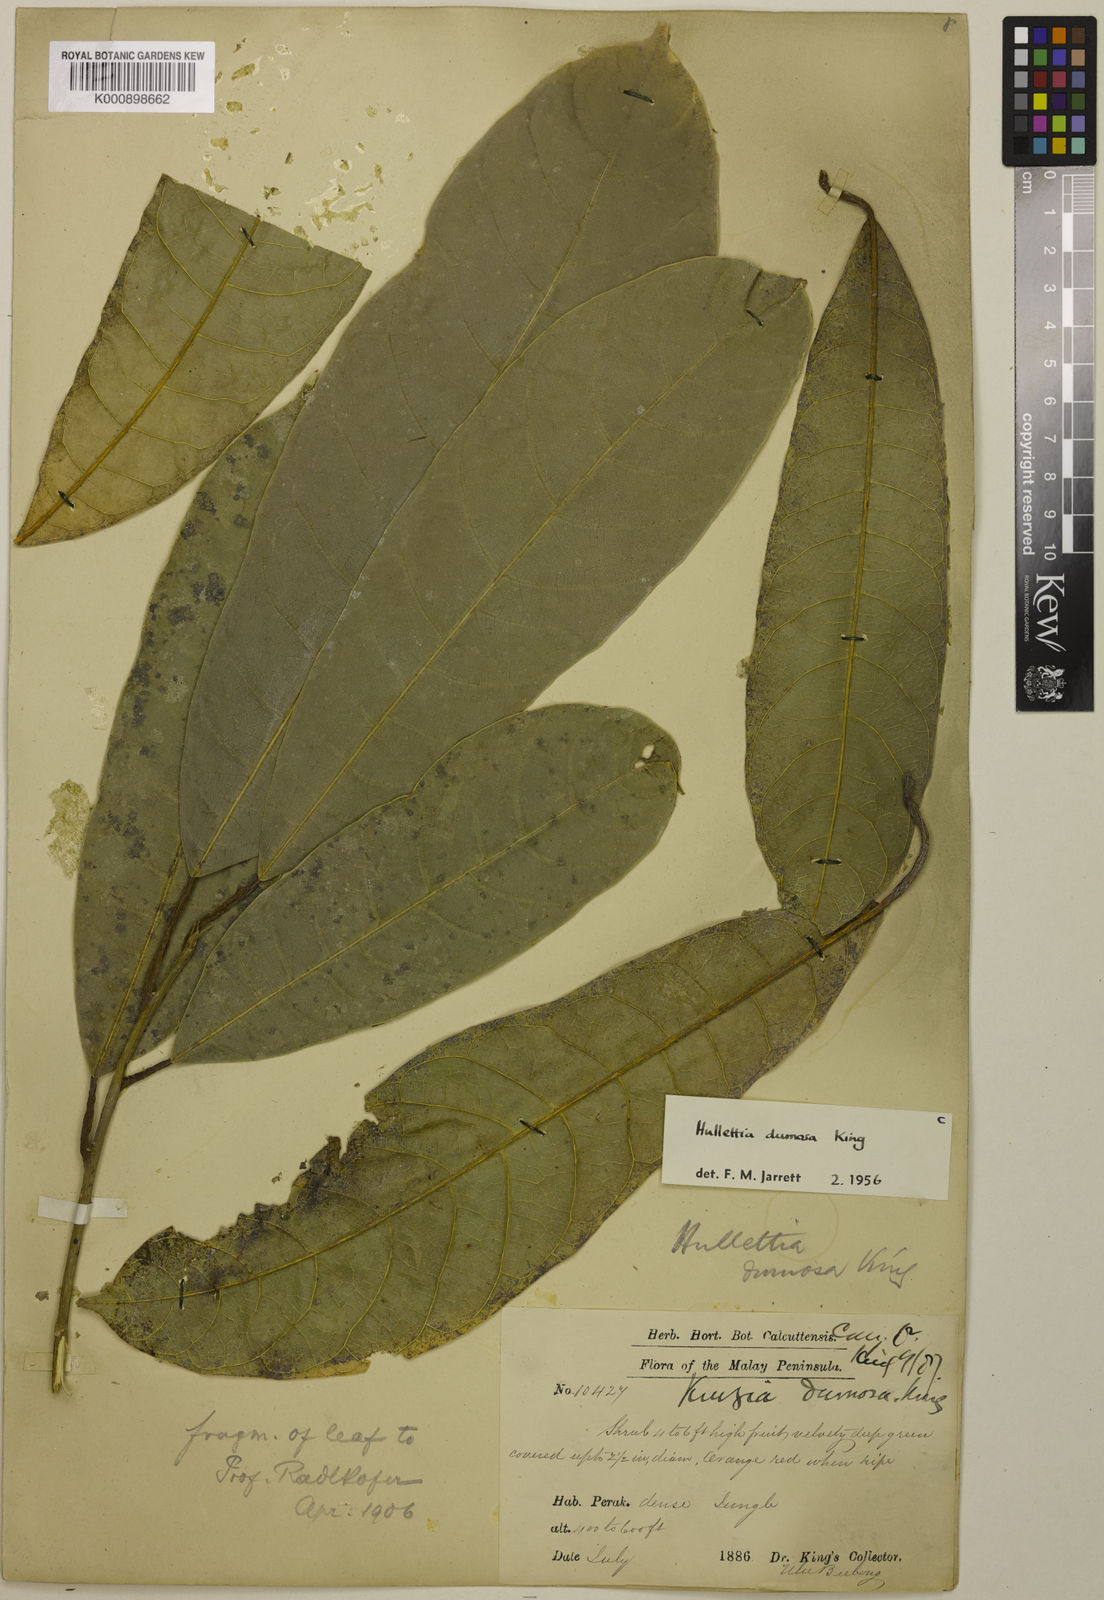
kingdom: Plantae
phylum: Tracheophyta
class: Magnoliopsida
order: Rosales
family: Moraceae
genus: Hullettia
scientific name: Hullettia
